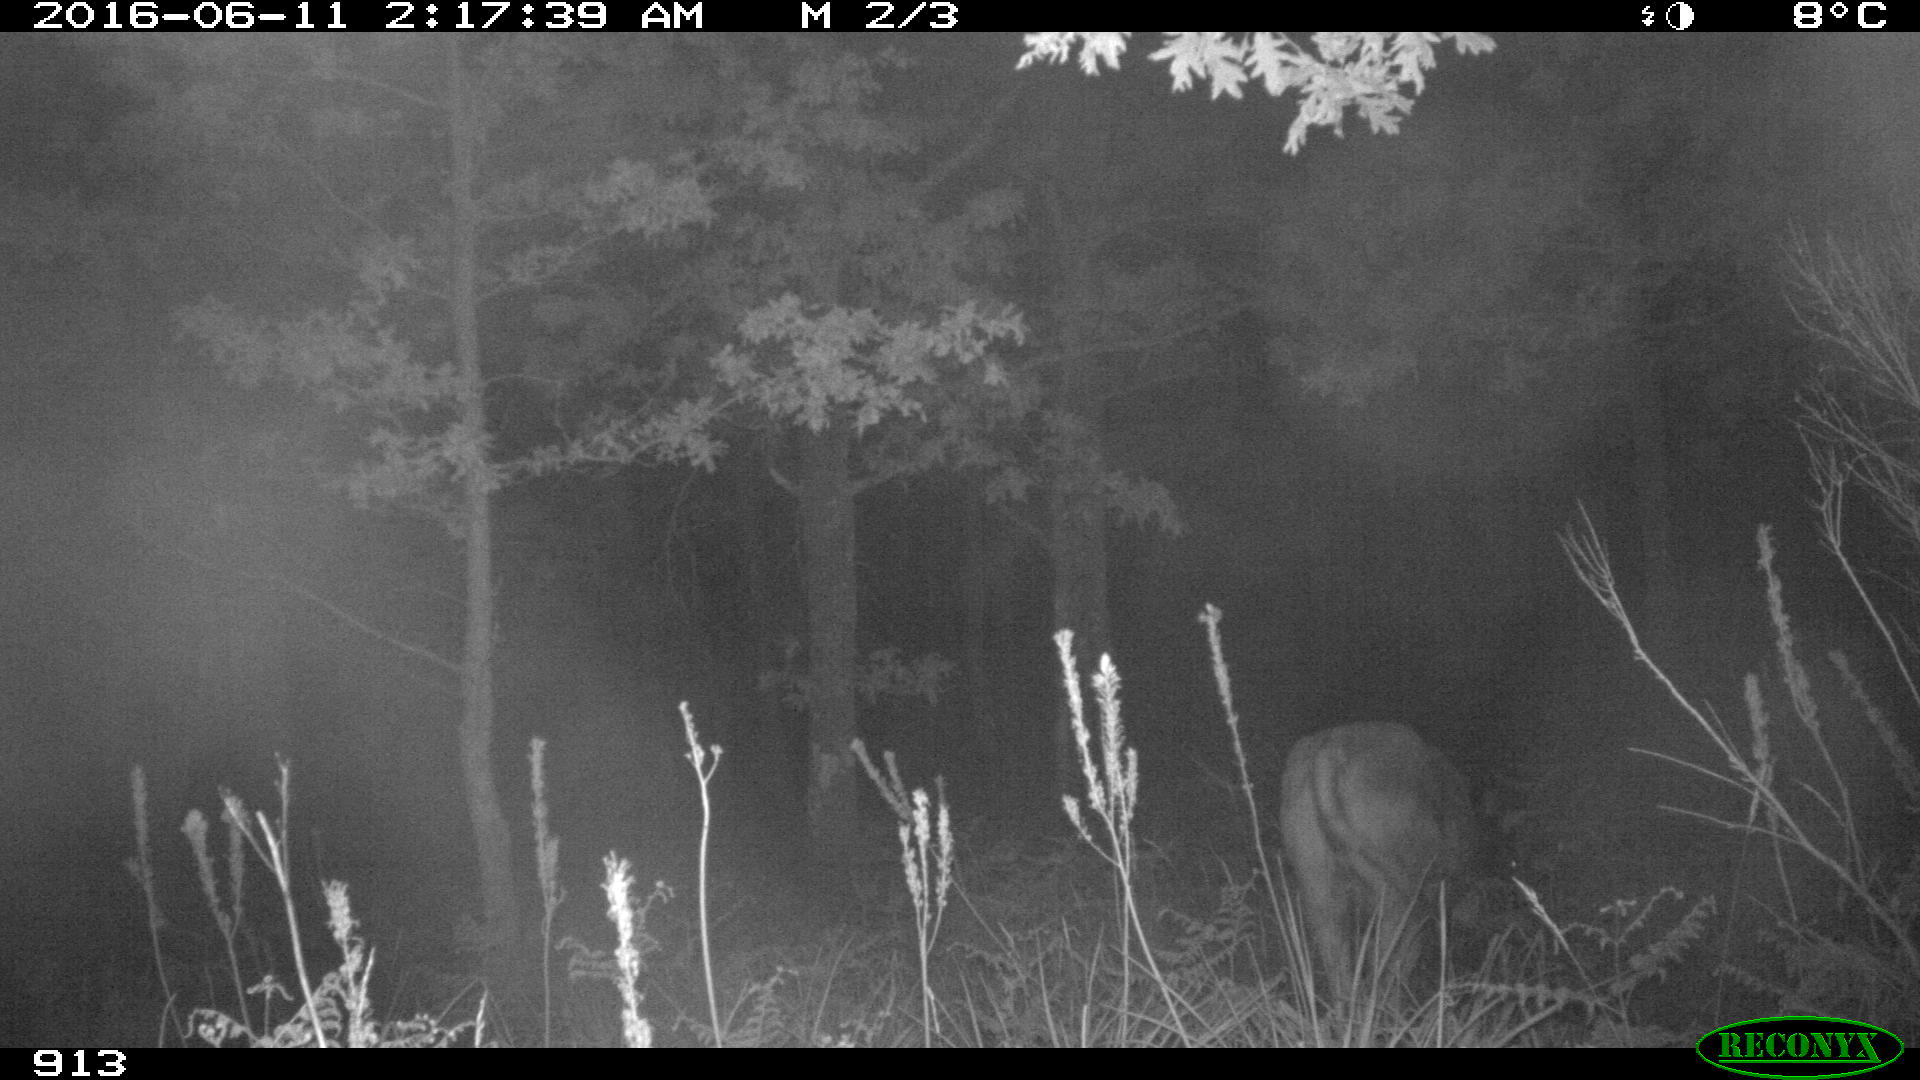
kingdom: Animalia
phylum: Chordata
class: Mammalia
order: Artiodactyla
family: Bovidae
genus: Bos
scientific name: Bos taurus
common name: Domesticated cattle
